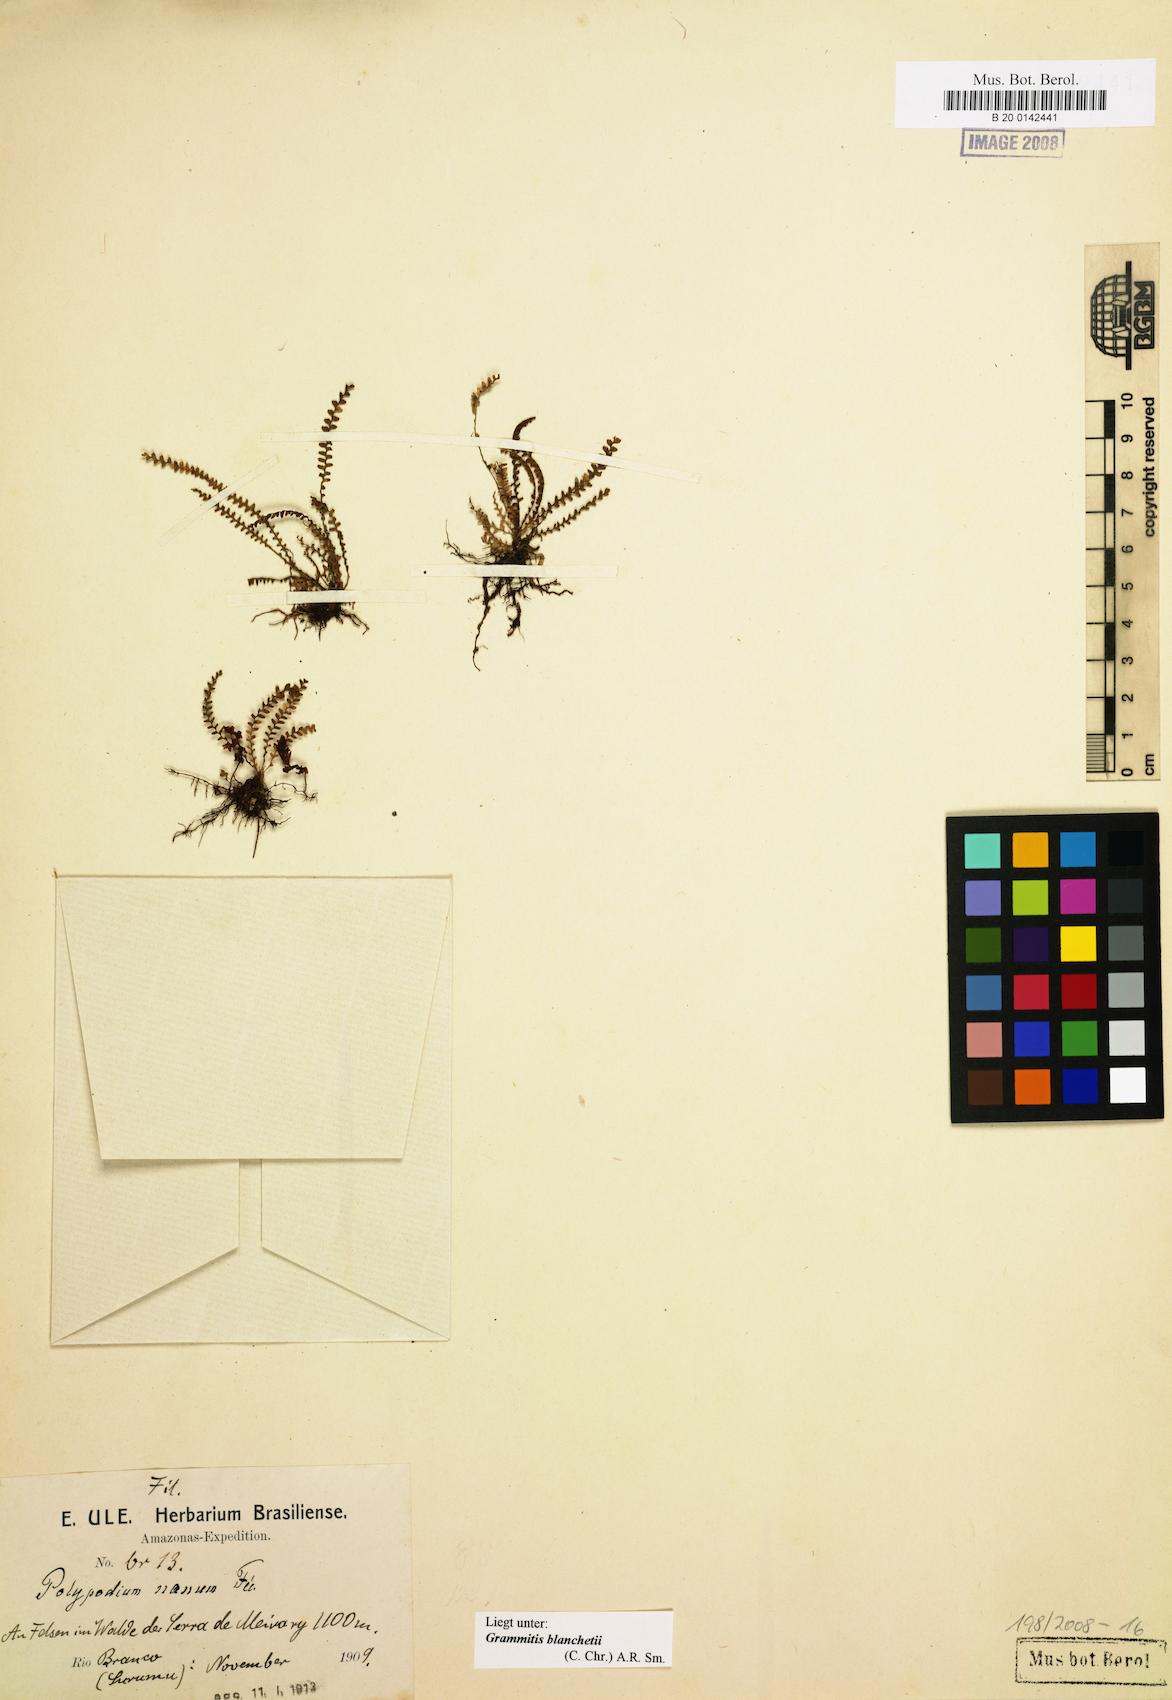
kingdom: Plantae
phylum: Tracheophyta
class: Polypodiopsida
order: Polypodiales
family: Polypodiaceae
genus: Moranopteris
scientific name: Moranopteris nana
